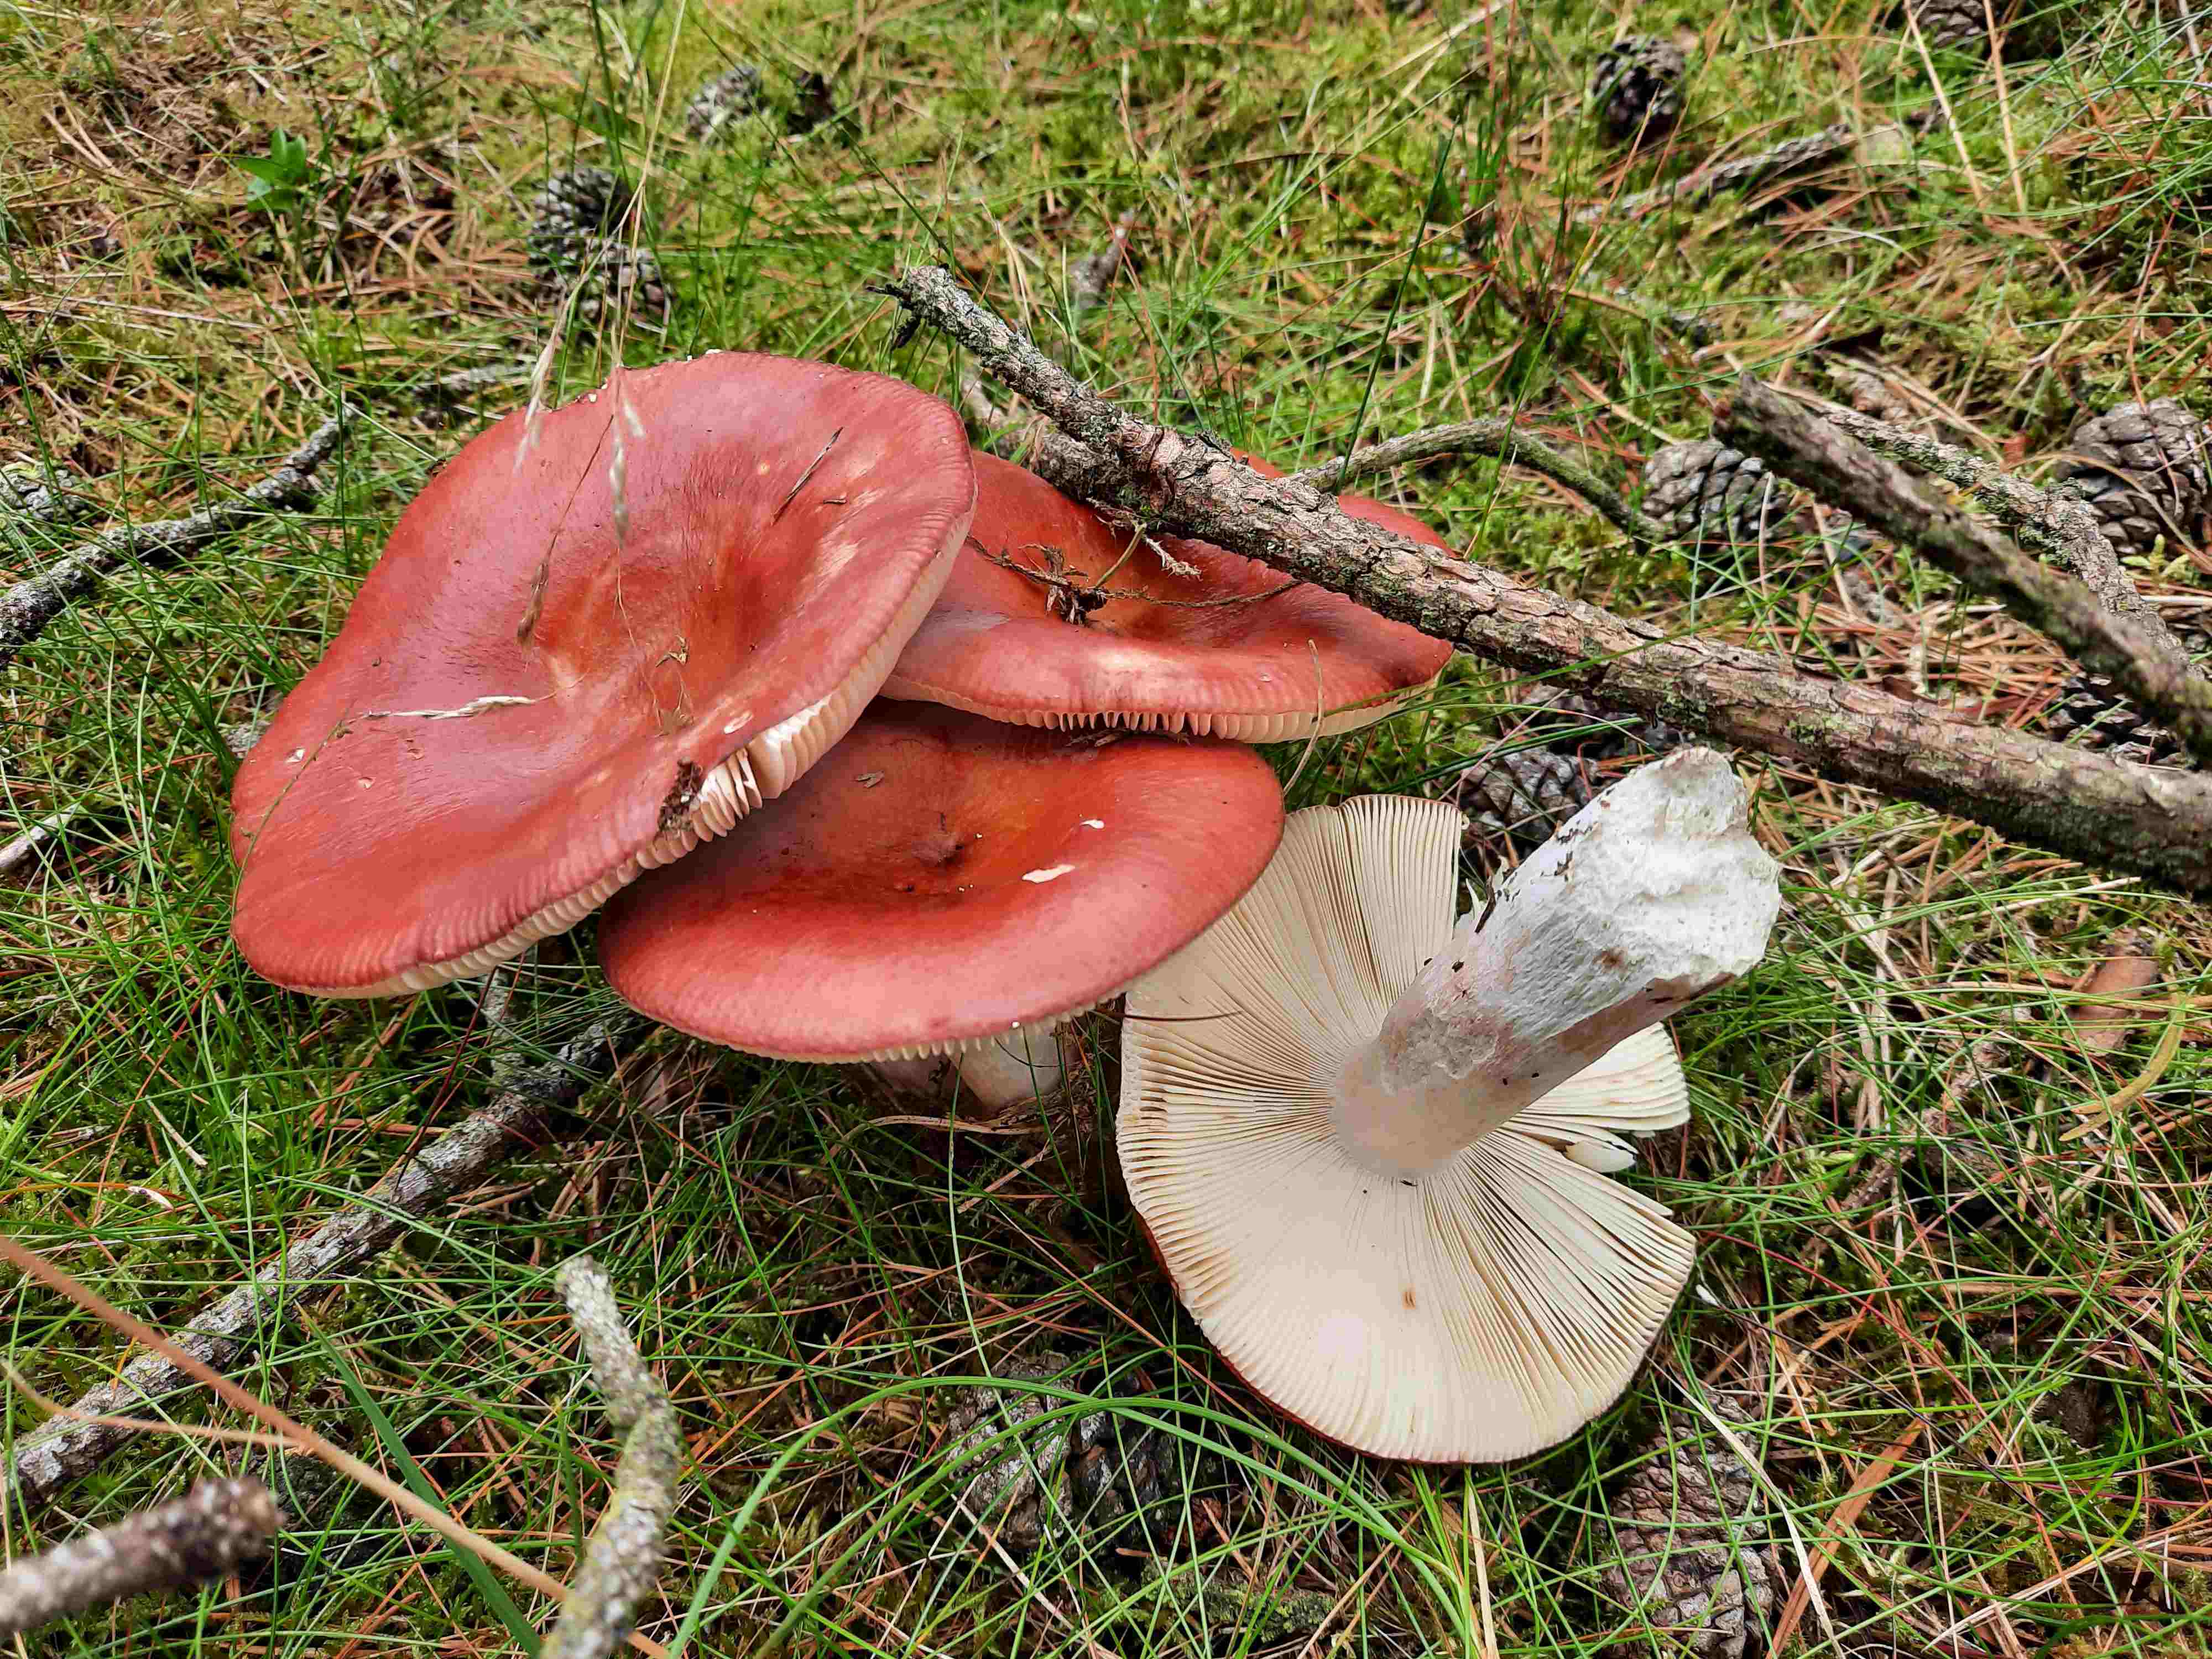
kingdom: Fungi
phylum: Basidiomycota
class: Agaricomycetes
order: Russulales
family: Russulaceae
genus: Russula
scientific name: Russula paludosa
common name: prægtig skørhat
